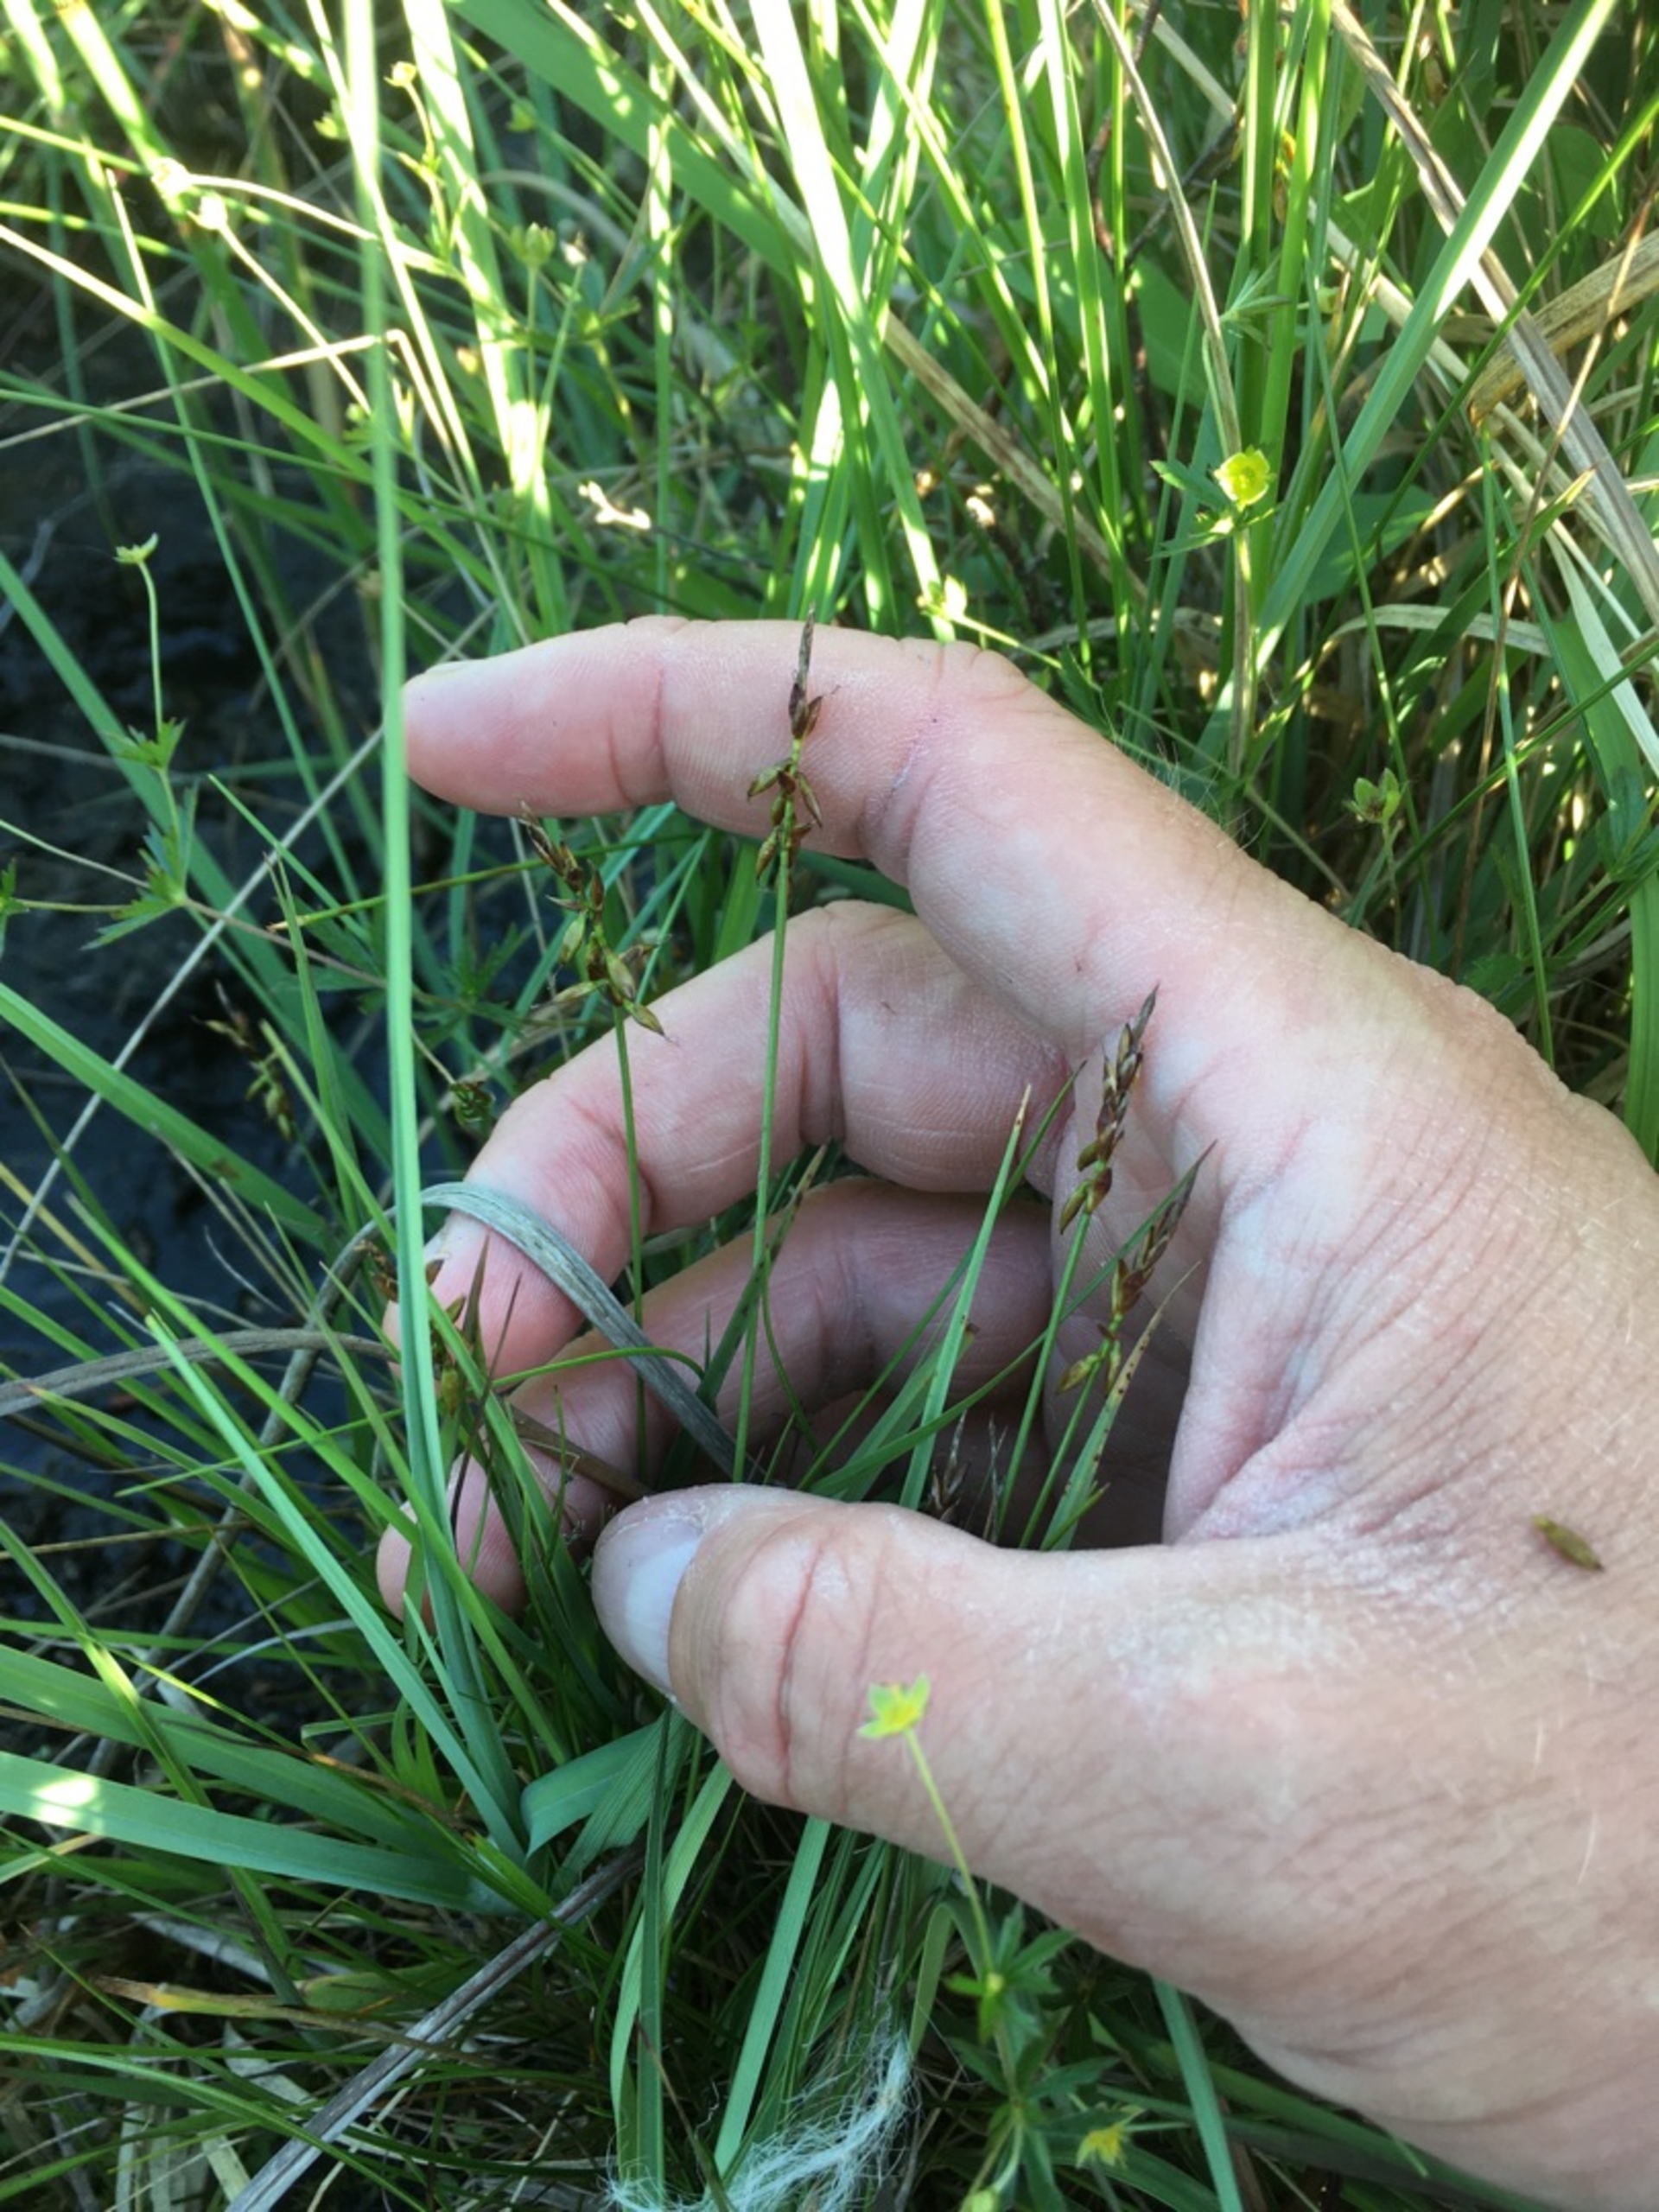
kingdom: Plantae
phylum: Tracheophyta
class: Liliopsida
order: Poales
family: Cyperaceae
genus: Carex
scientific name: Carex pulicaris
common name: Loppe-star
